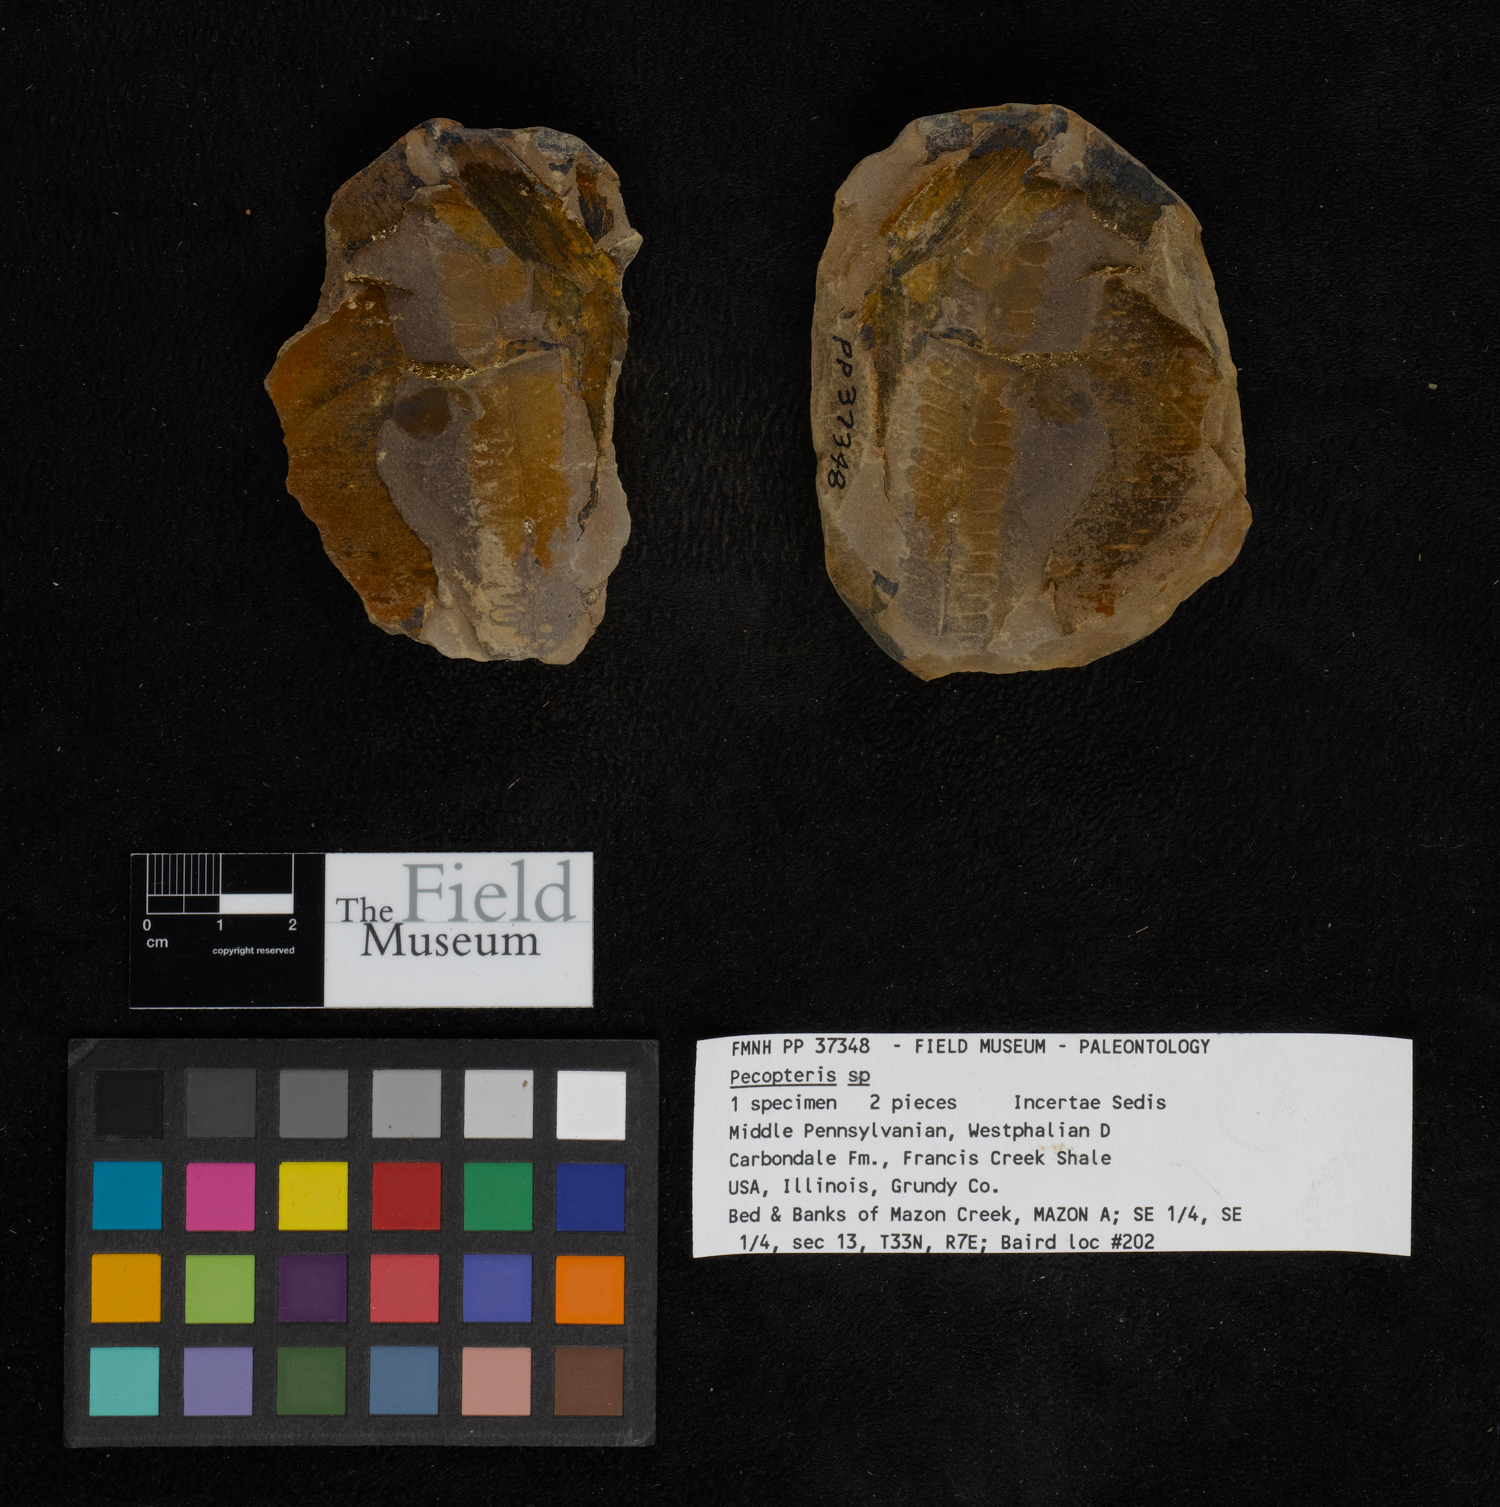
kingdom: Plantae
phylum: Tracheophyta
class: Polypodiopsida
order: Marattiales
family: Asterothecaceae
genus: Pecopteris
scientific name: Pecopteris
